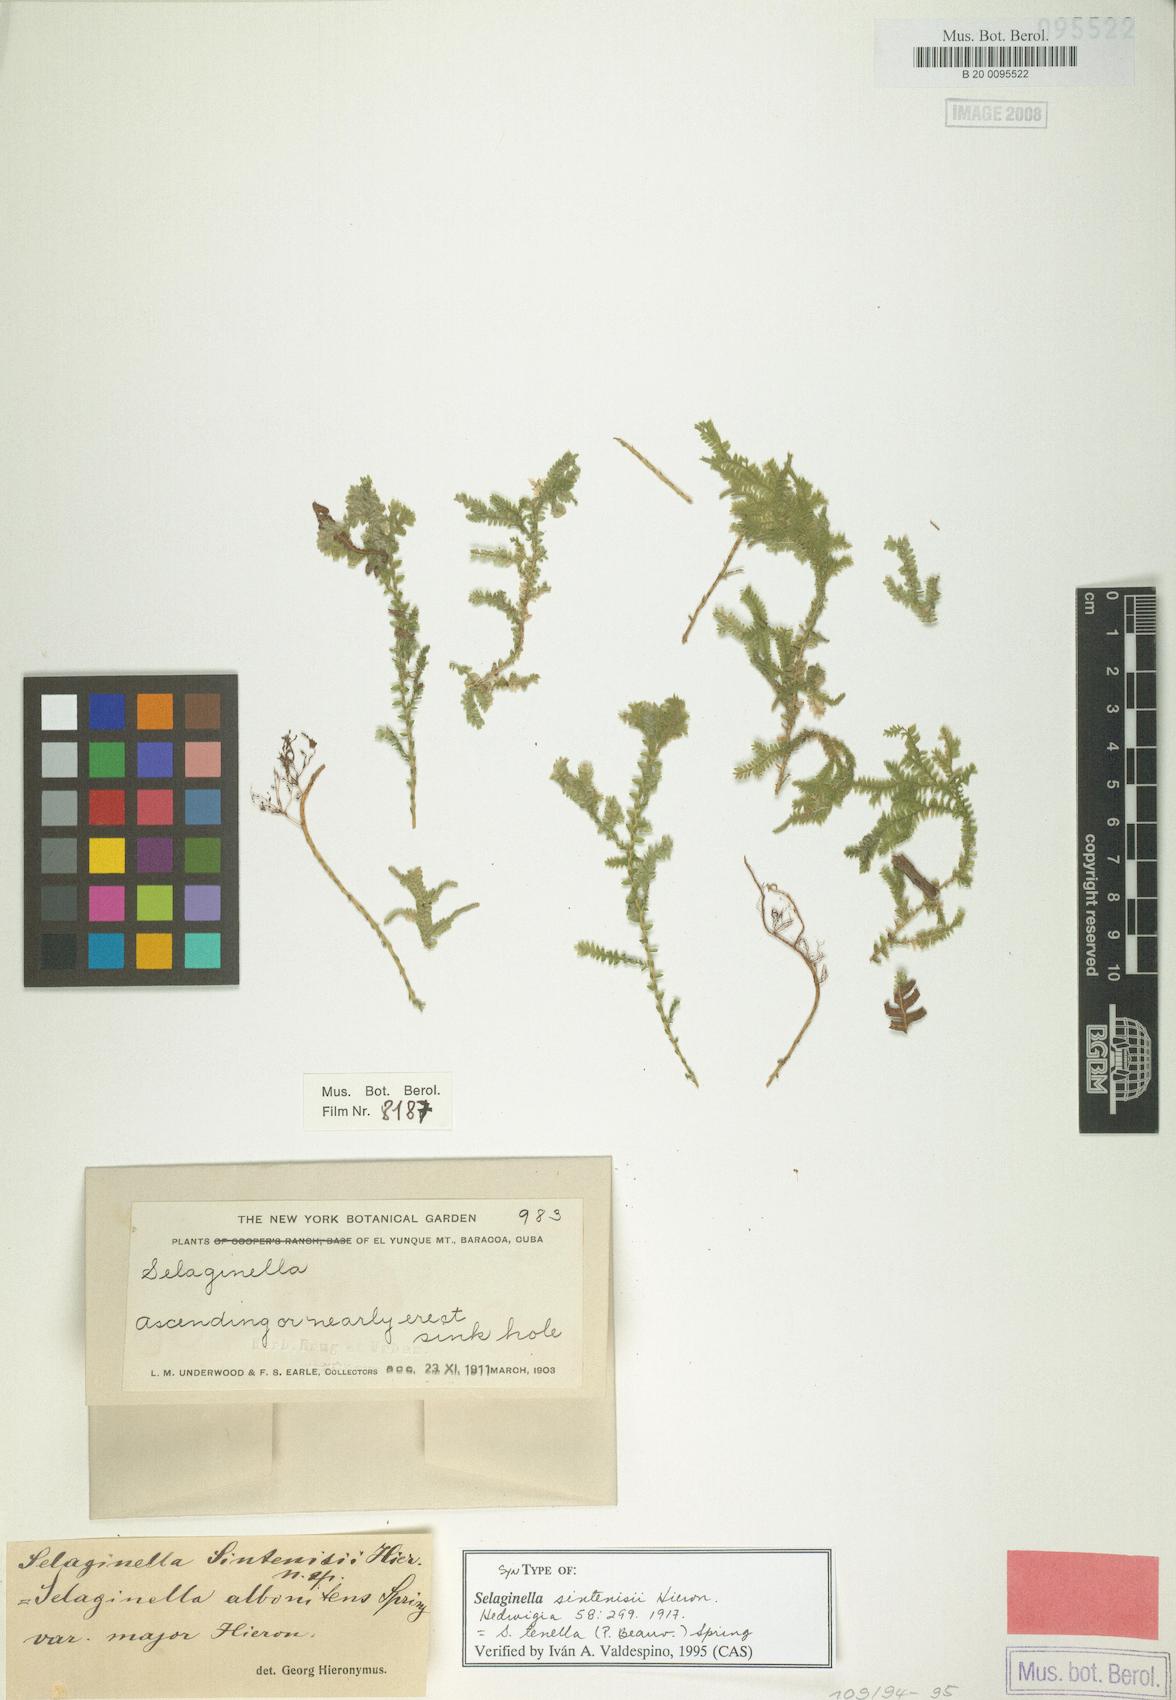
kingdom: Plantae
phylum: Tracheophyta
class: Lycopodiopsida
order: Selaginellales
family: Selaginellaceae
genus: Selaginella
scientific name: Selaginella tenella
